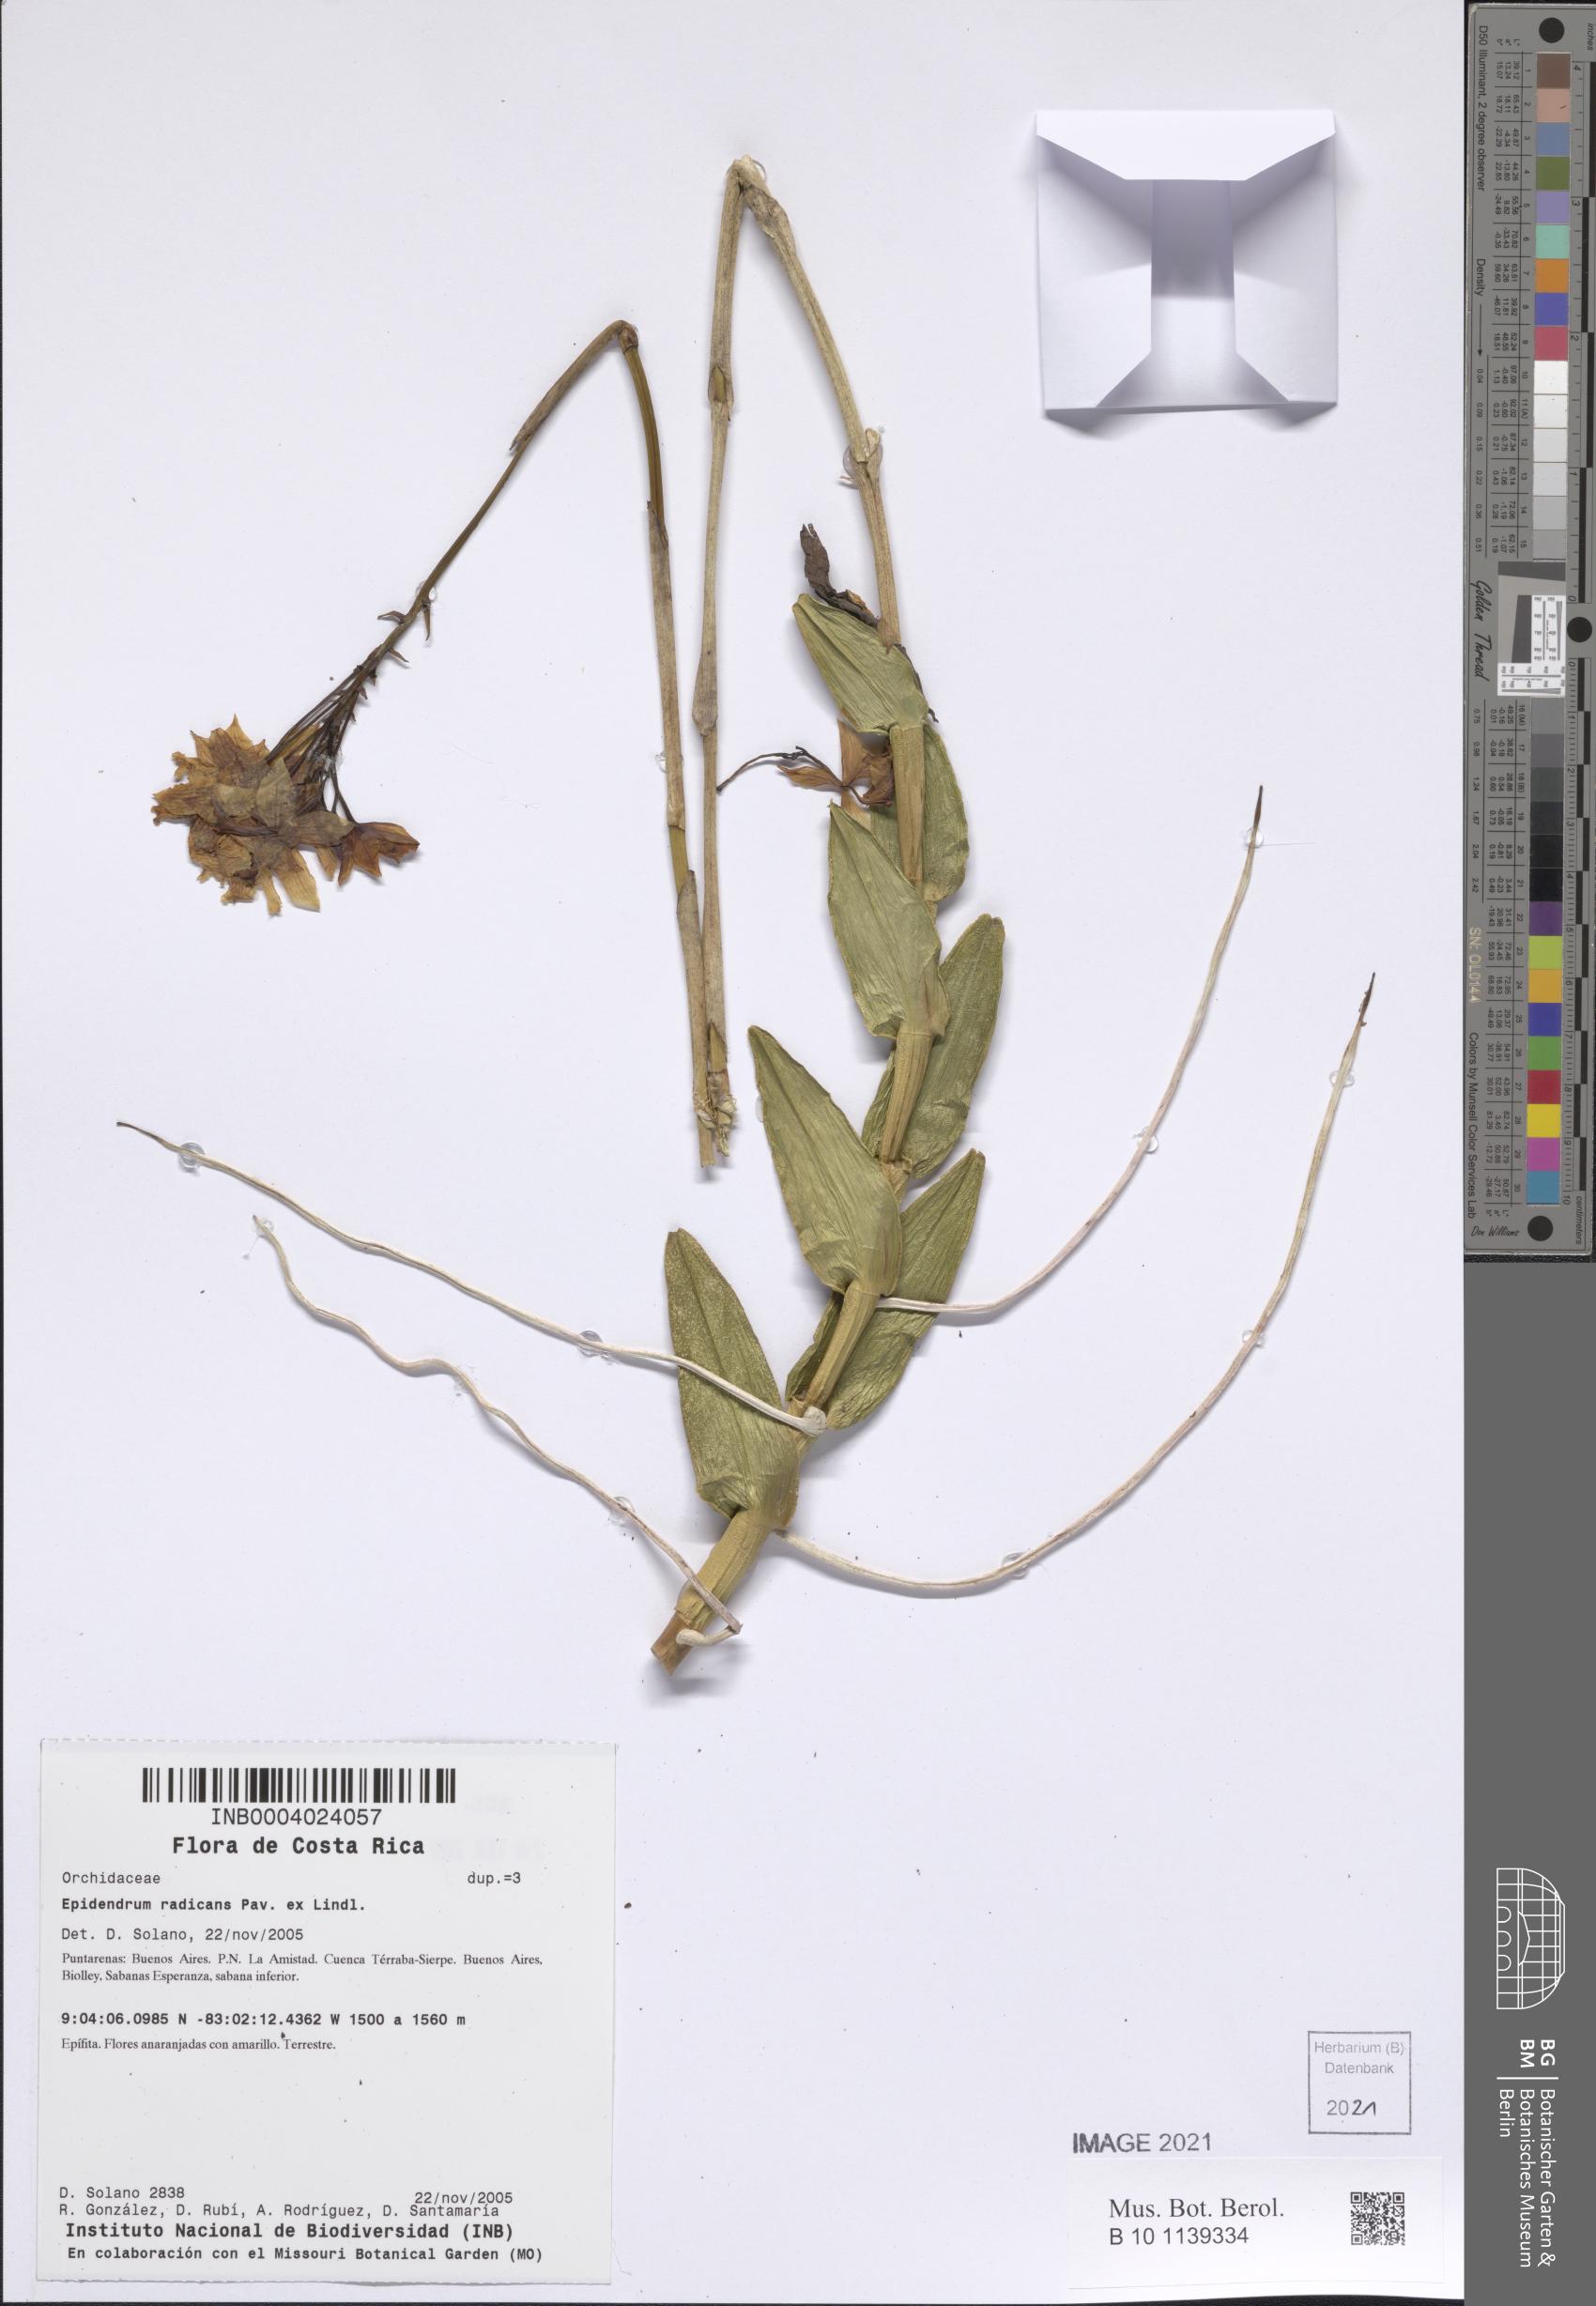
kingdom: Plantae
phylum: Tracheophyta
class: Liliopsida
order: Asparagales
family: Orchidaceae
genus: Epidendrum
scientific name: Epidendrum radicans
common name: Fire star orchid
